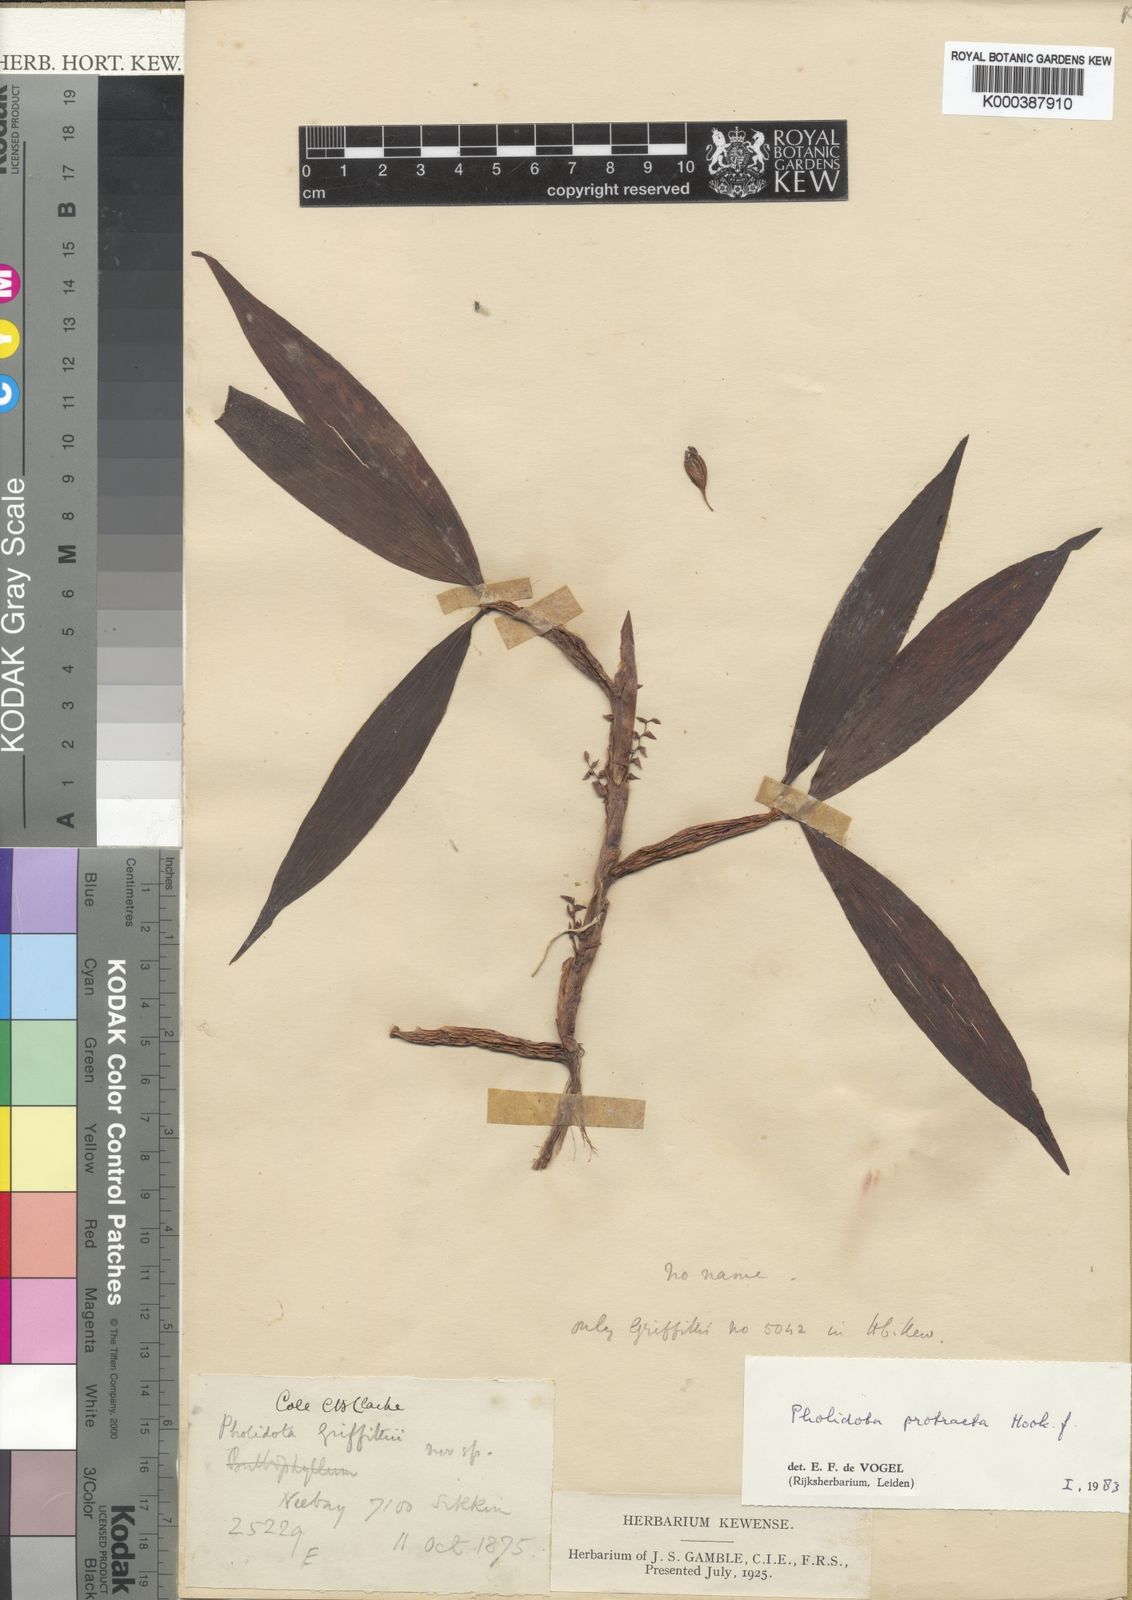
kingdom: Plantae
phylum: Tracheophyta
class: Liliopsida
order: Asparagales
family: Orchidaceae
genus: Coelogyne
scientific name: Coelogyne protracta
